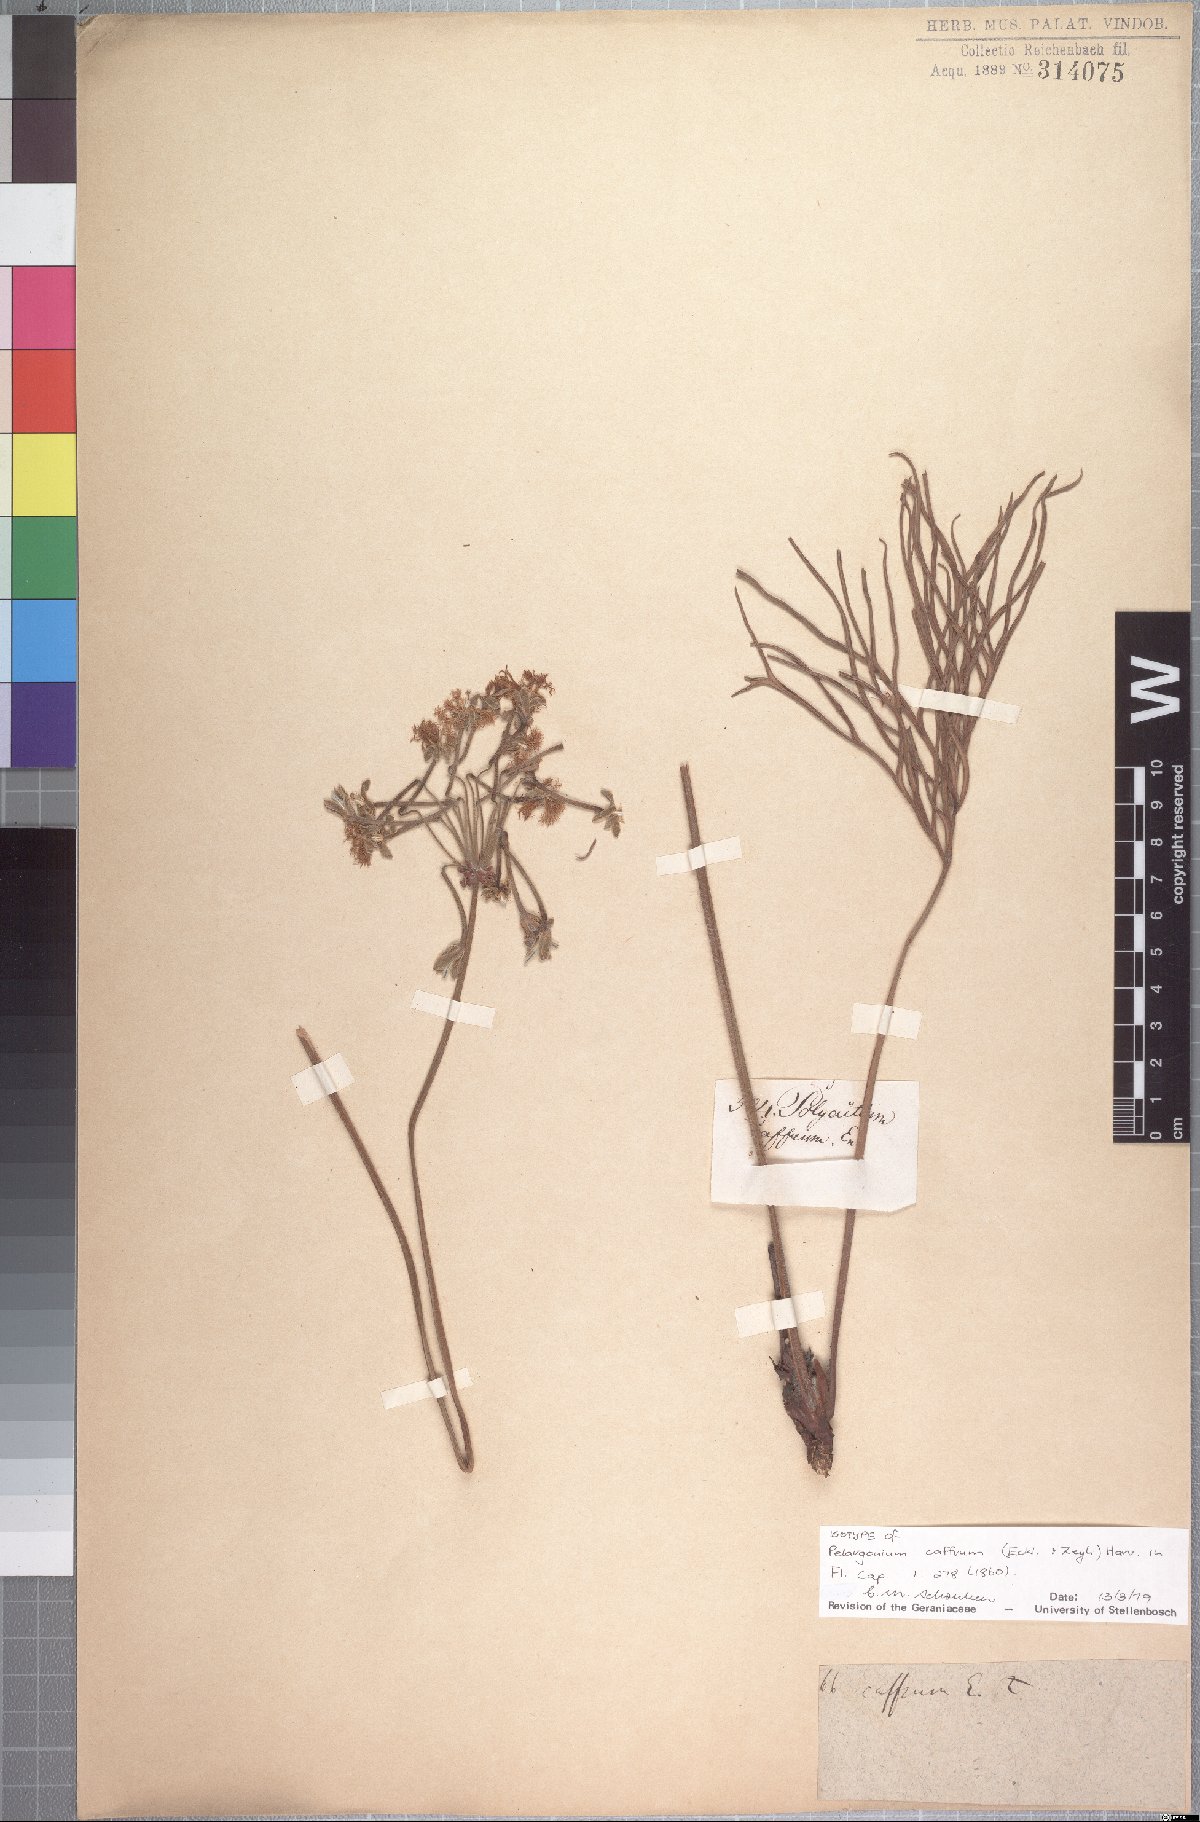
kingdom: Plantae
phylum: Tracheophyta
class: Magnoliopsida
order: Geraniales
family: Geraniaceae
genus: Pelargonium
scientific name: Pelargonium caffrum
